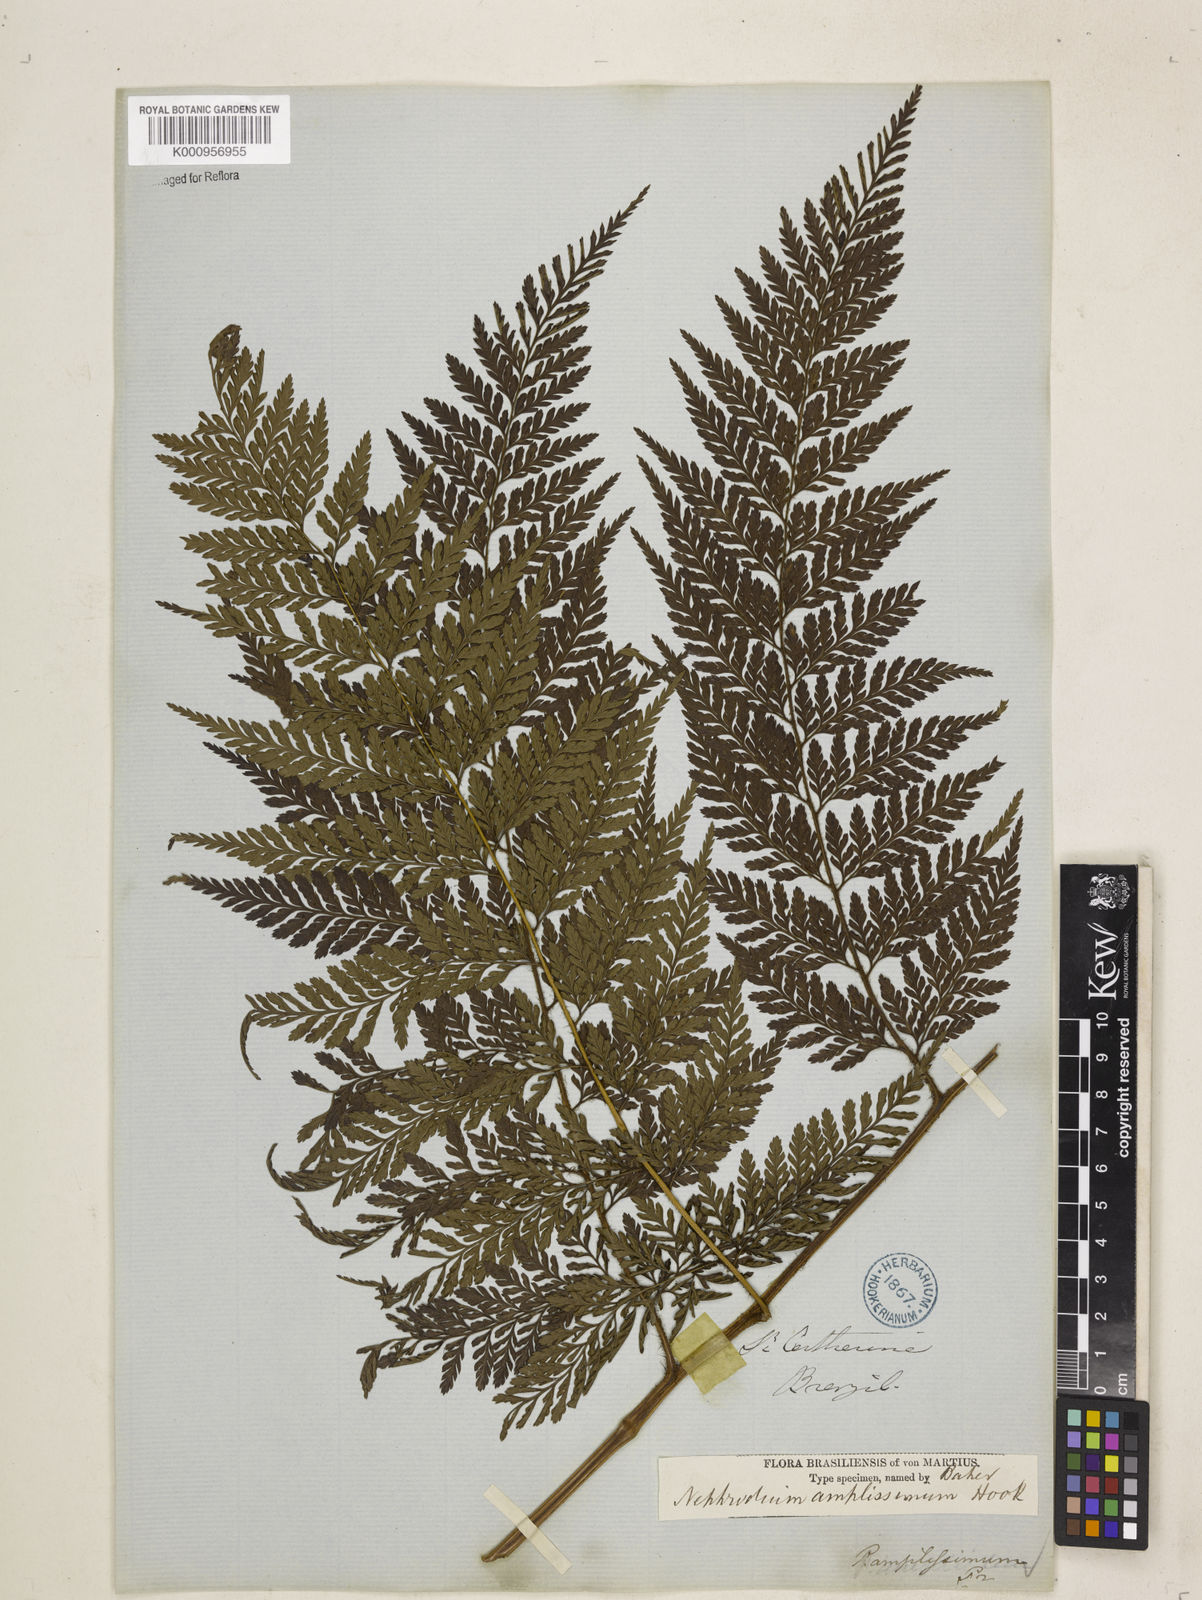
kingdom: Plantae
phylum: Tracheophyta
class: Polypodiopsida
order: Polypodiales
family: Dryopteridaceae
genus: Lastreopsis
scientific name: Lastreopsis amplissima
